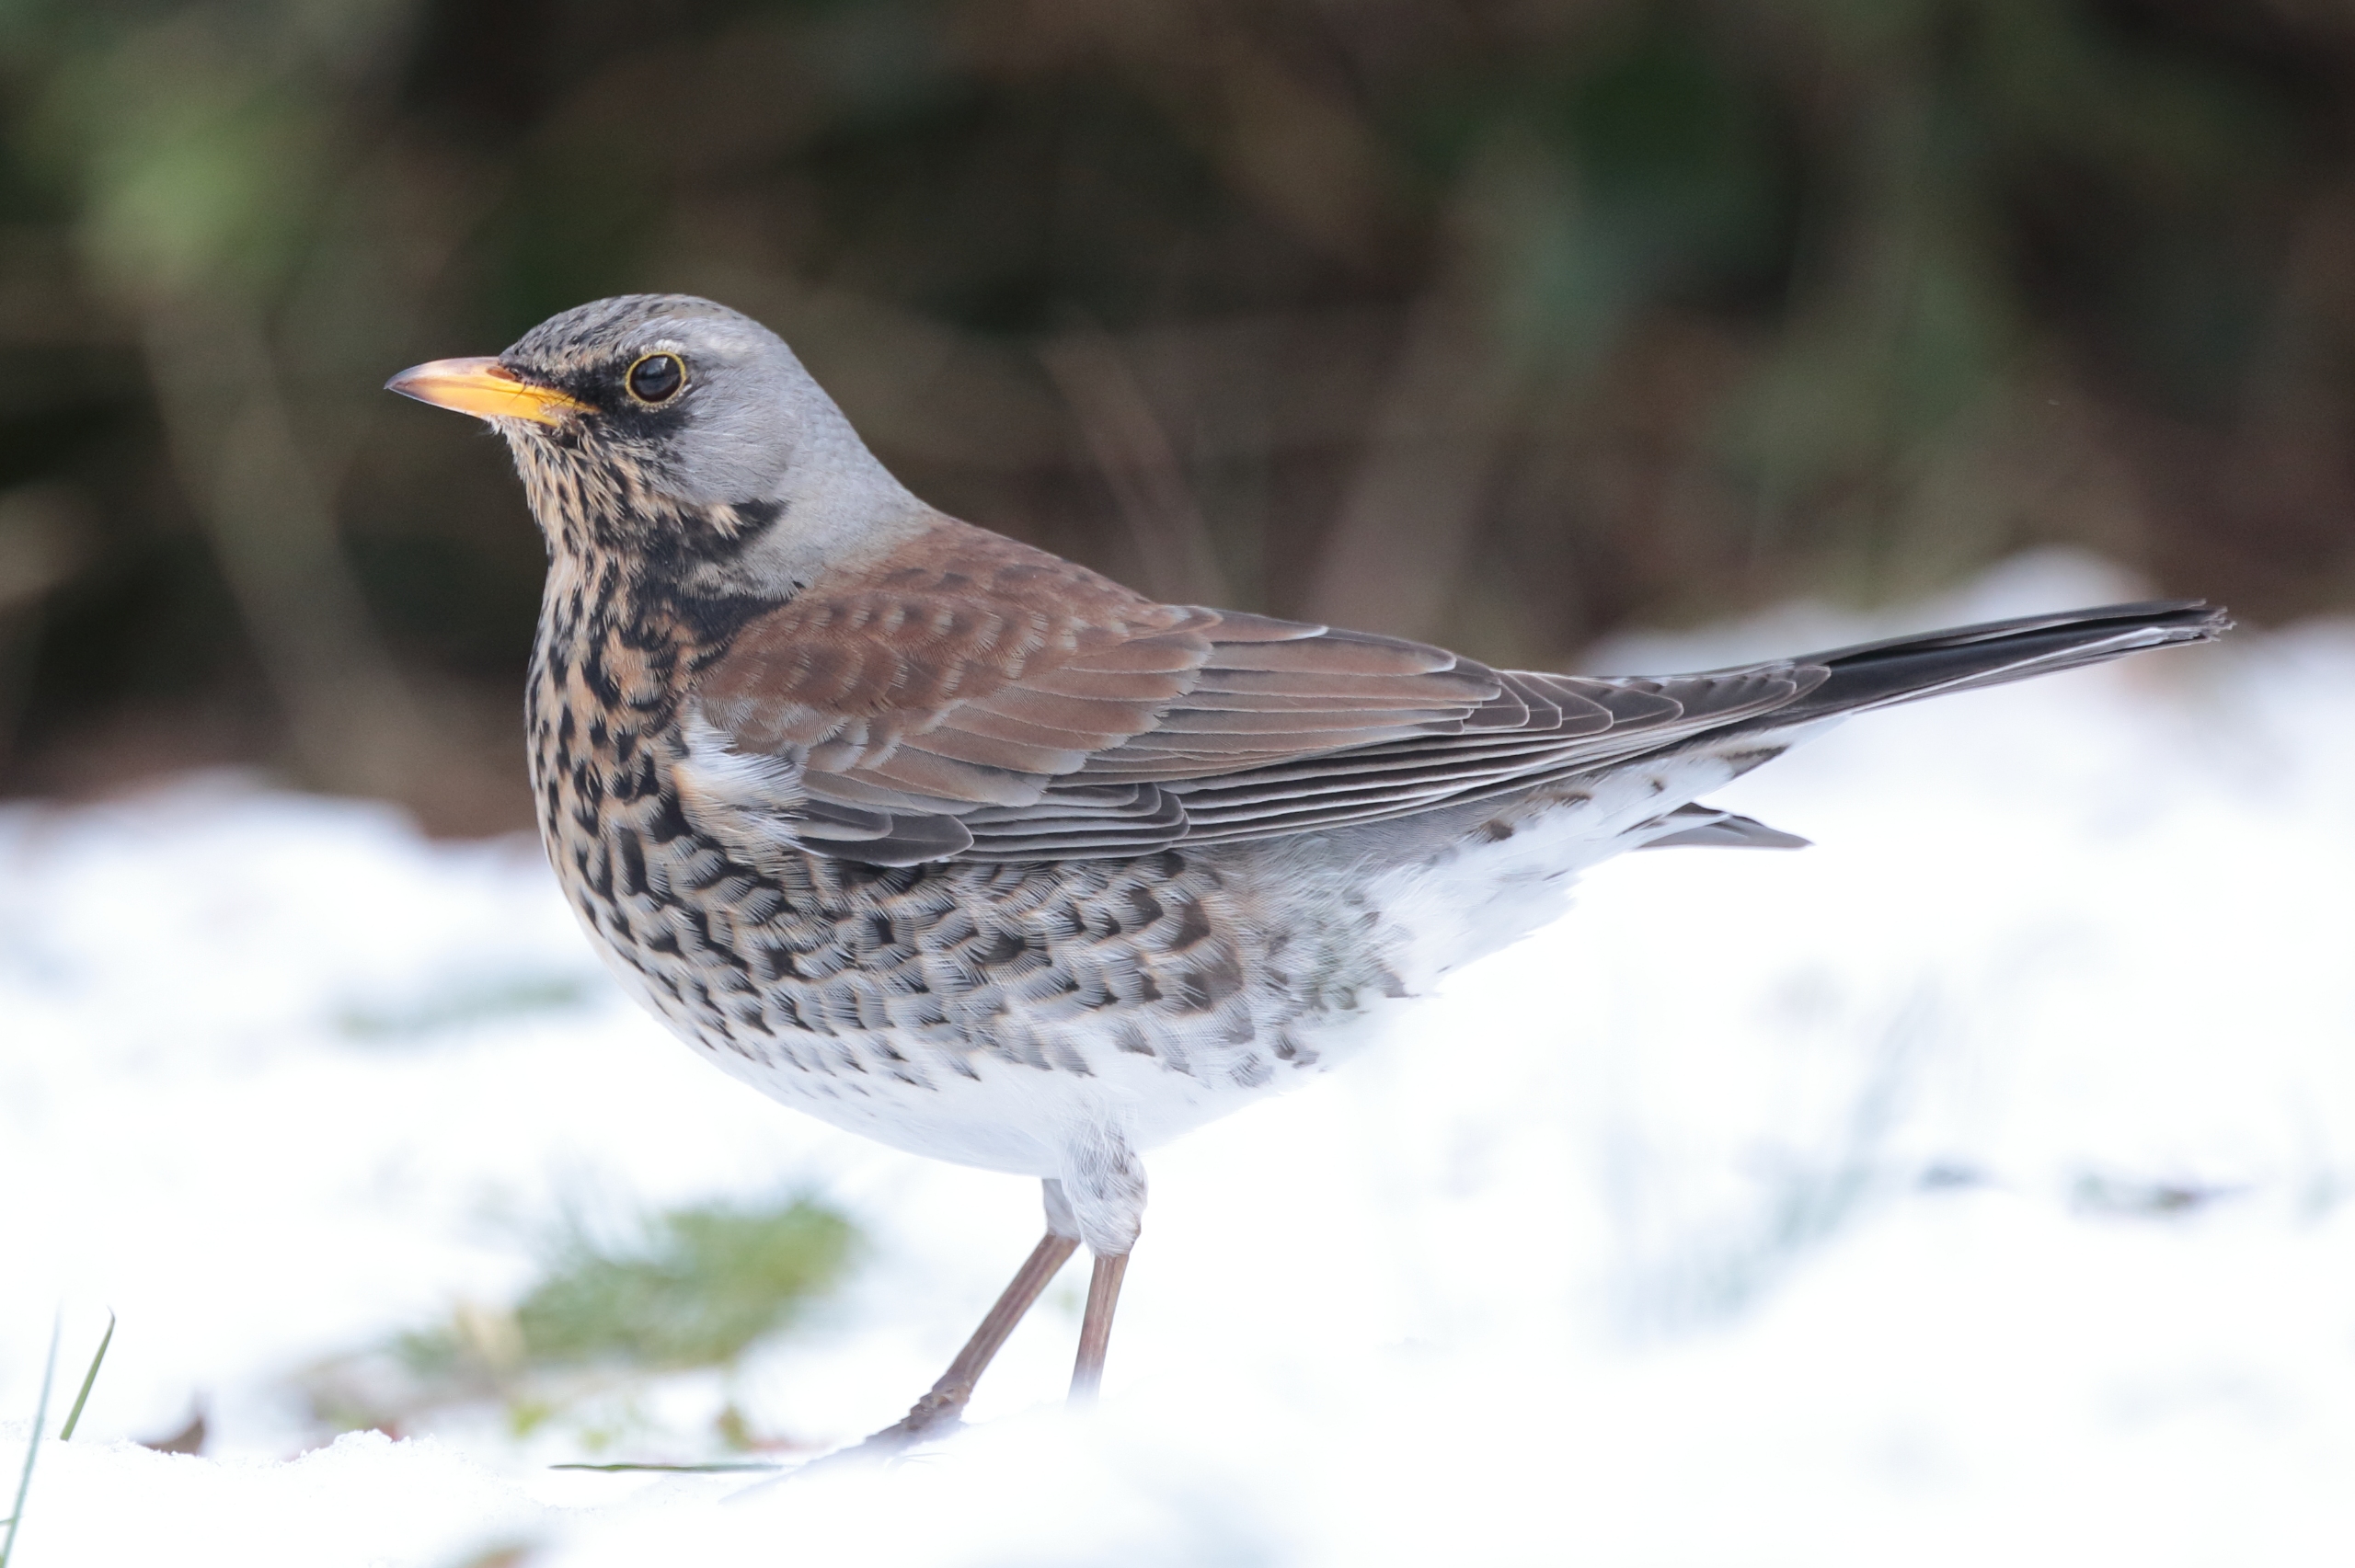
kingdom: Animalia
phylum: Chordata
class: Aves
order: Passeriformes
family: Turdidae
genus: Turdus
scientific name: Turdus pilaris
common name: Sjagger
